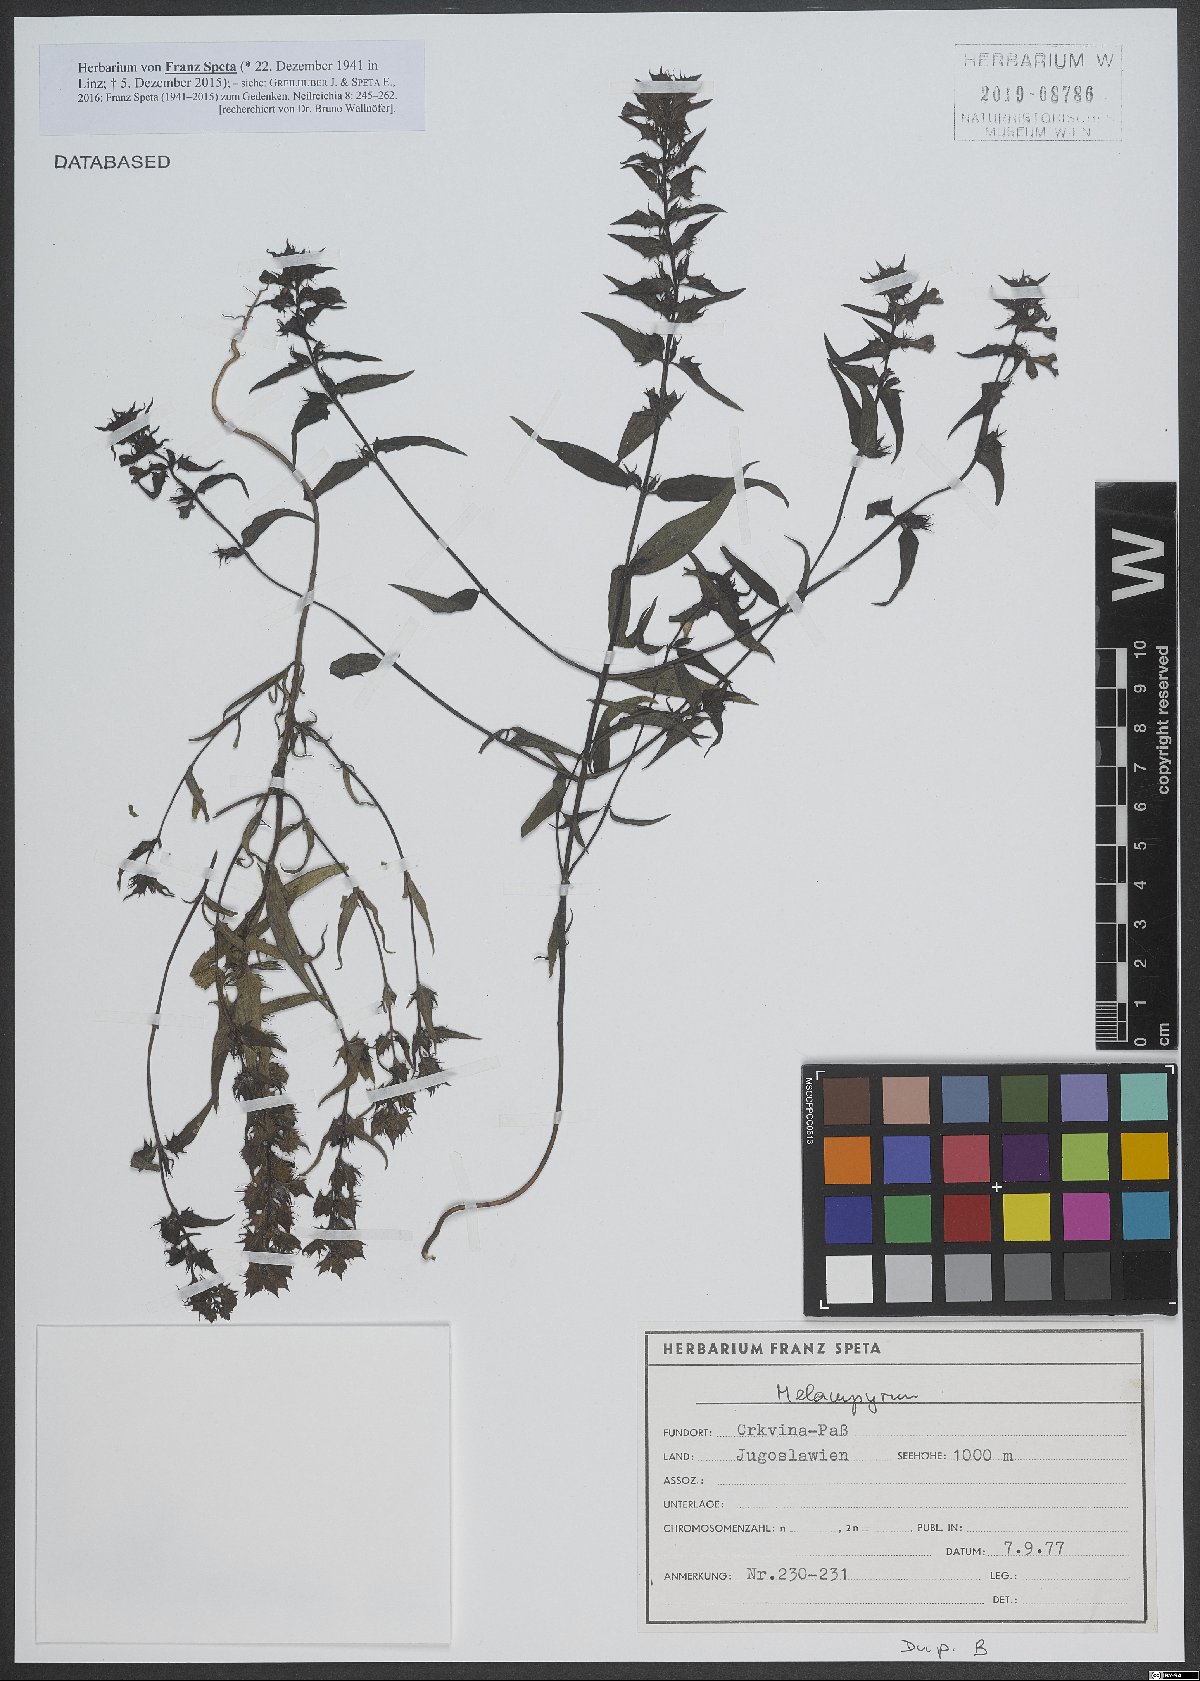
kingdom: Plantae
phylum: Tracheophyta
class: Magnoliopsida
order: Lamiales
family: Orobanchaceae
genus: Melampyrum
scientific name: Melampyrum
